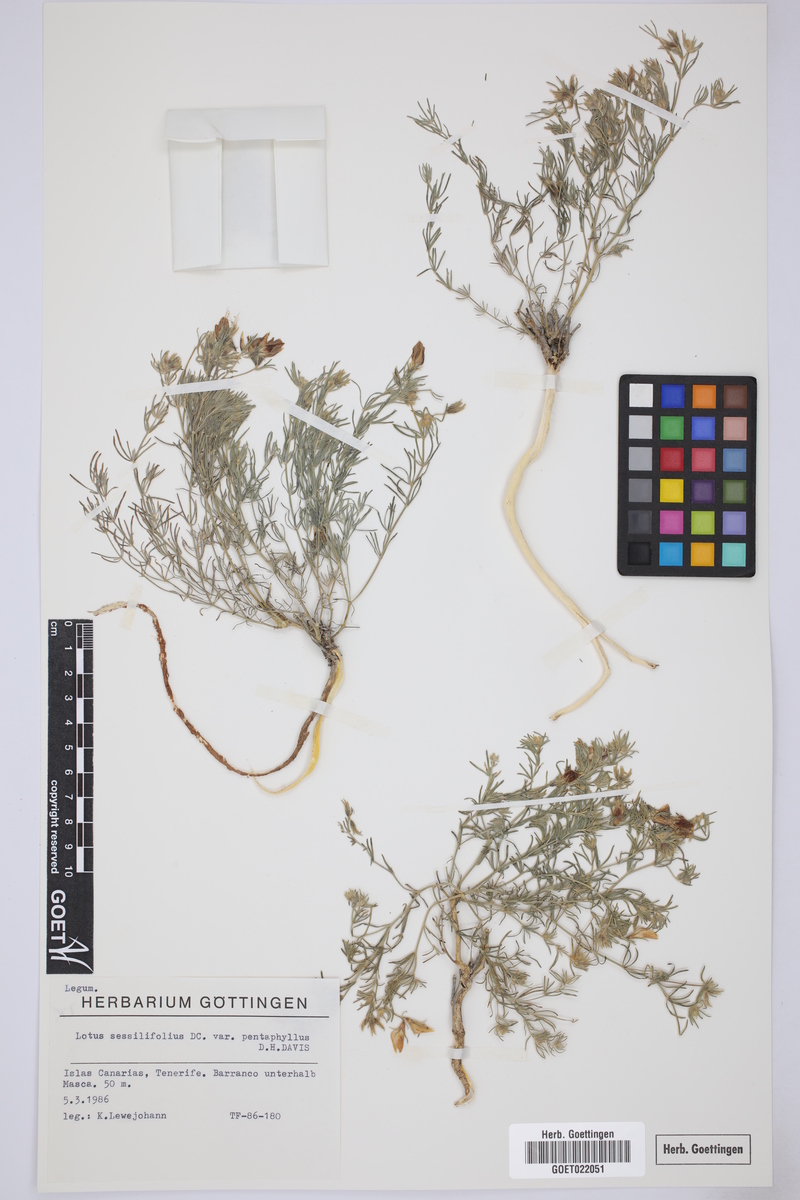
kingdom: Plantae
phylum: Tracheophyta
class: Magnoliopsida
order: Fabales
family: Fabaceae
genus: Lotus
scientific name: Lotus sessilifolius
